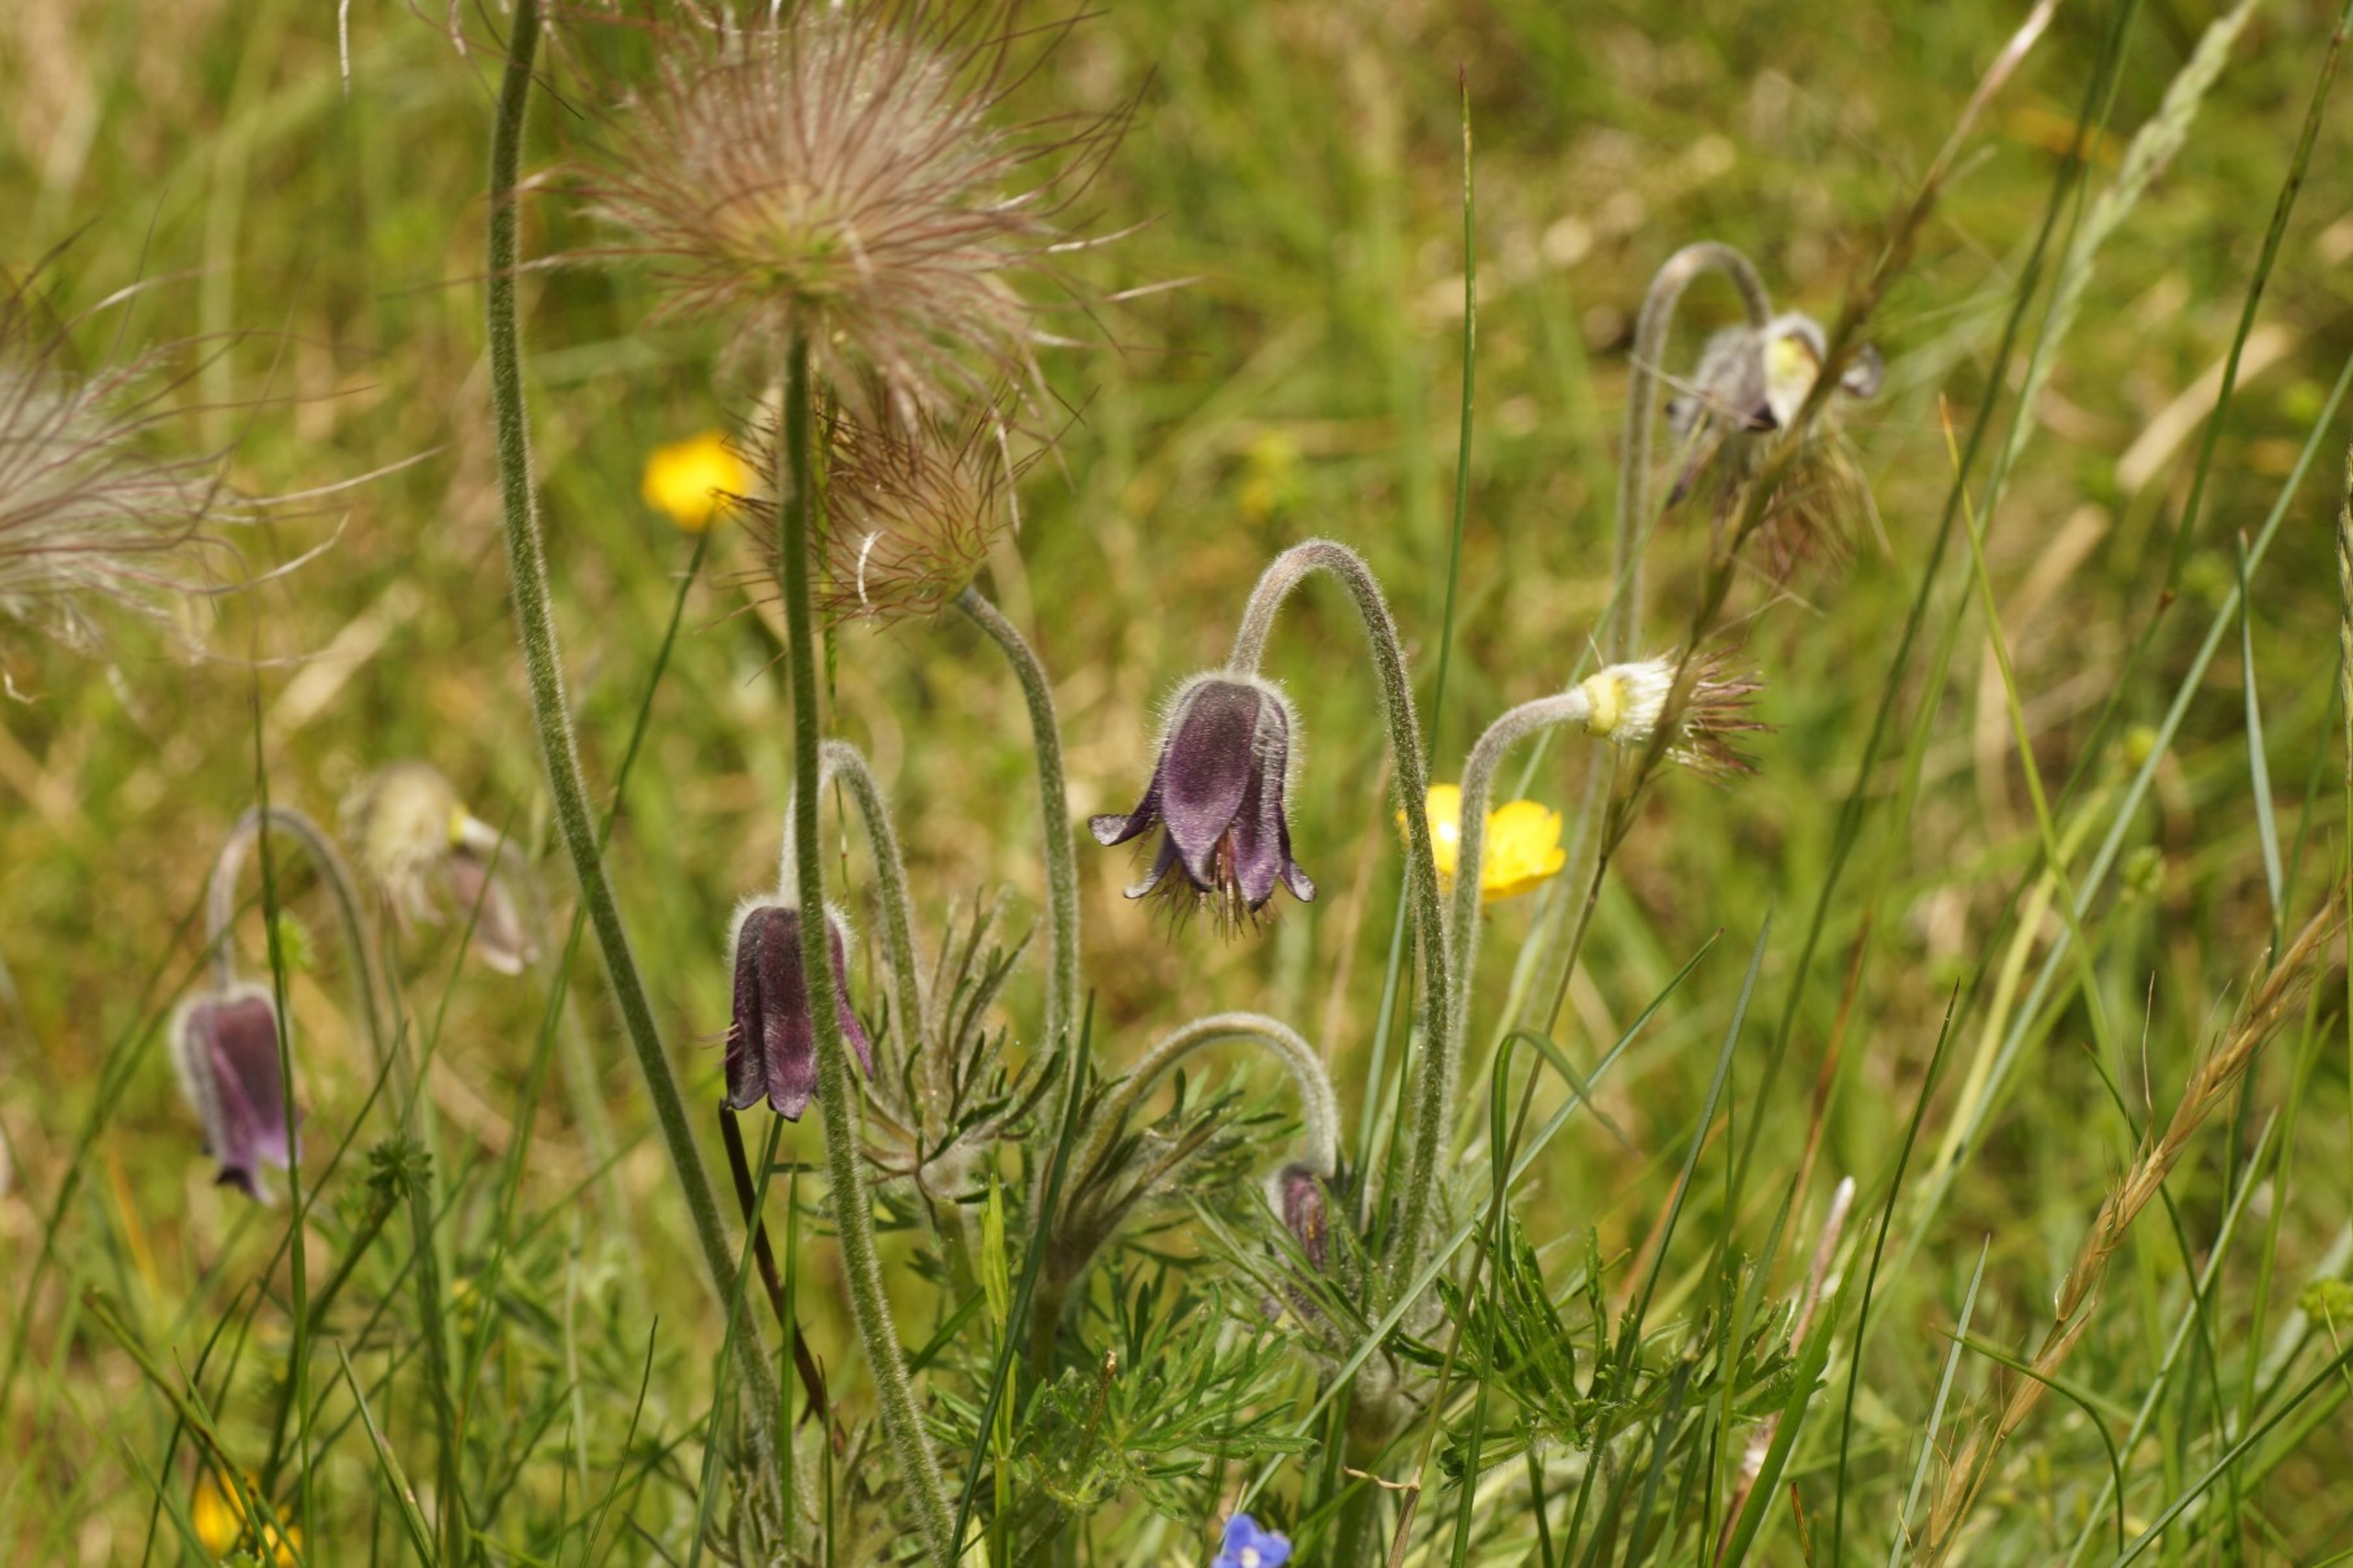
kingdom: Plantae
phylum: Tracheophyta
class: Magnoliopsida
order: Ranunculales
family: Ranunculaceae
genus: Pulsatilla
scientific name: Pulsatilla pratensis
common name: Nikkende kobjælde
